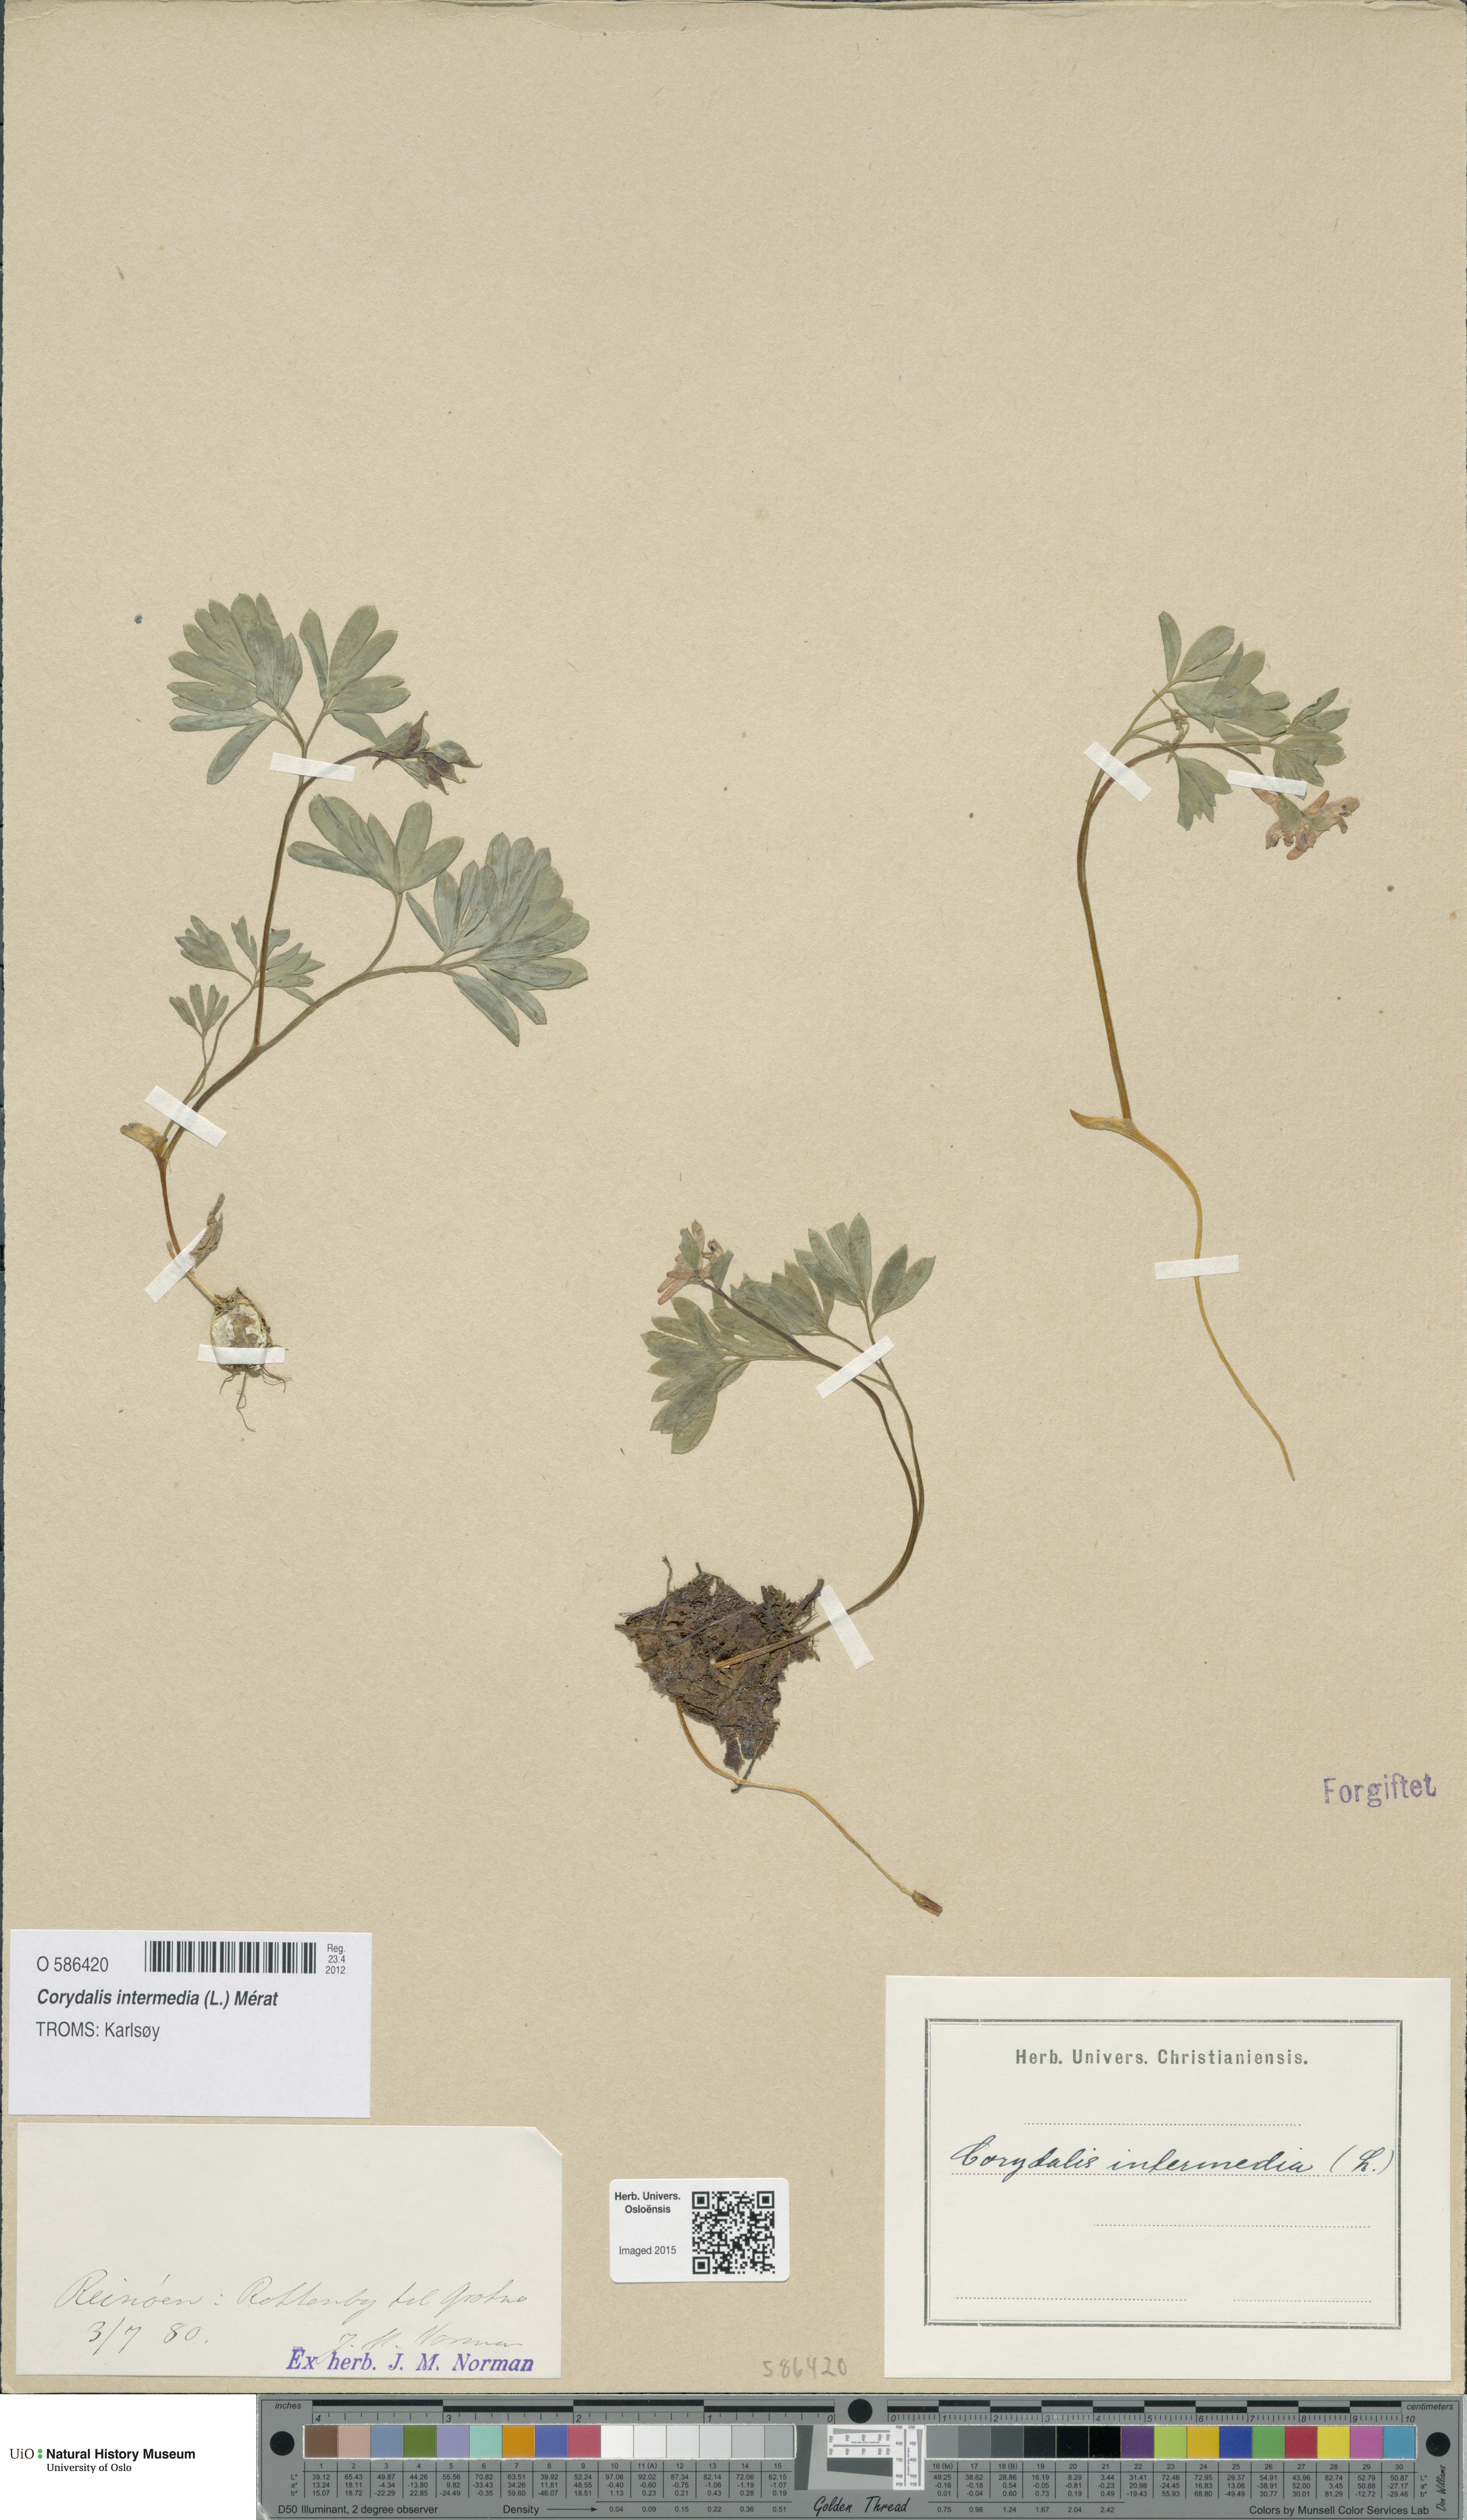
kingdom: Plantae
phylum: Tracheophyta
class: Magnoliopsida
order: Ranunculales
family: Papaveraceae
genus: Corydalis
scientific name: Corydalis intermedia
